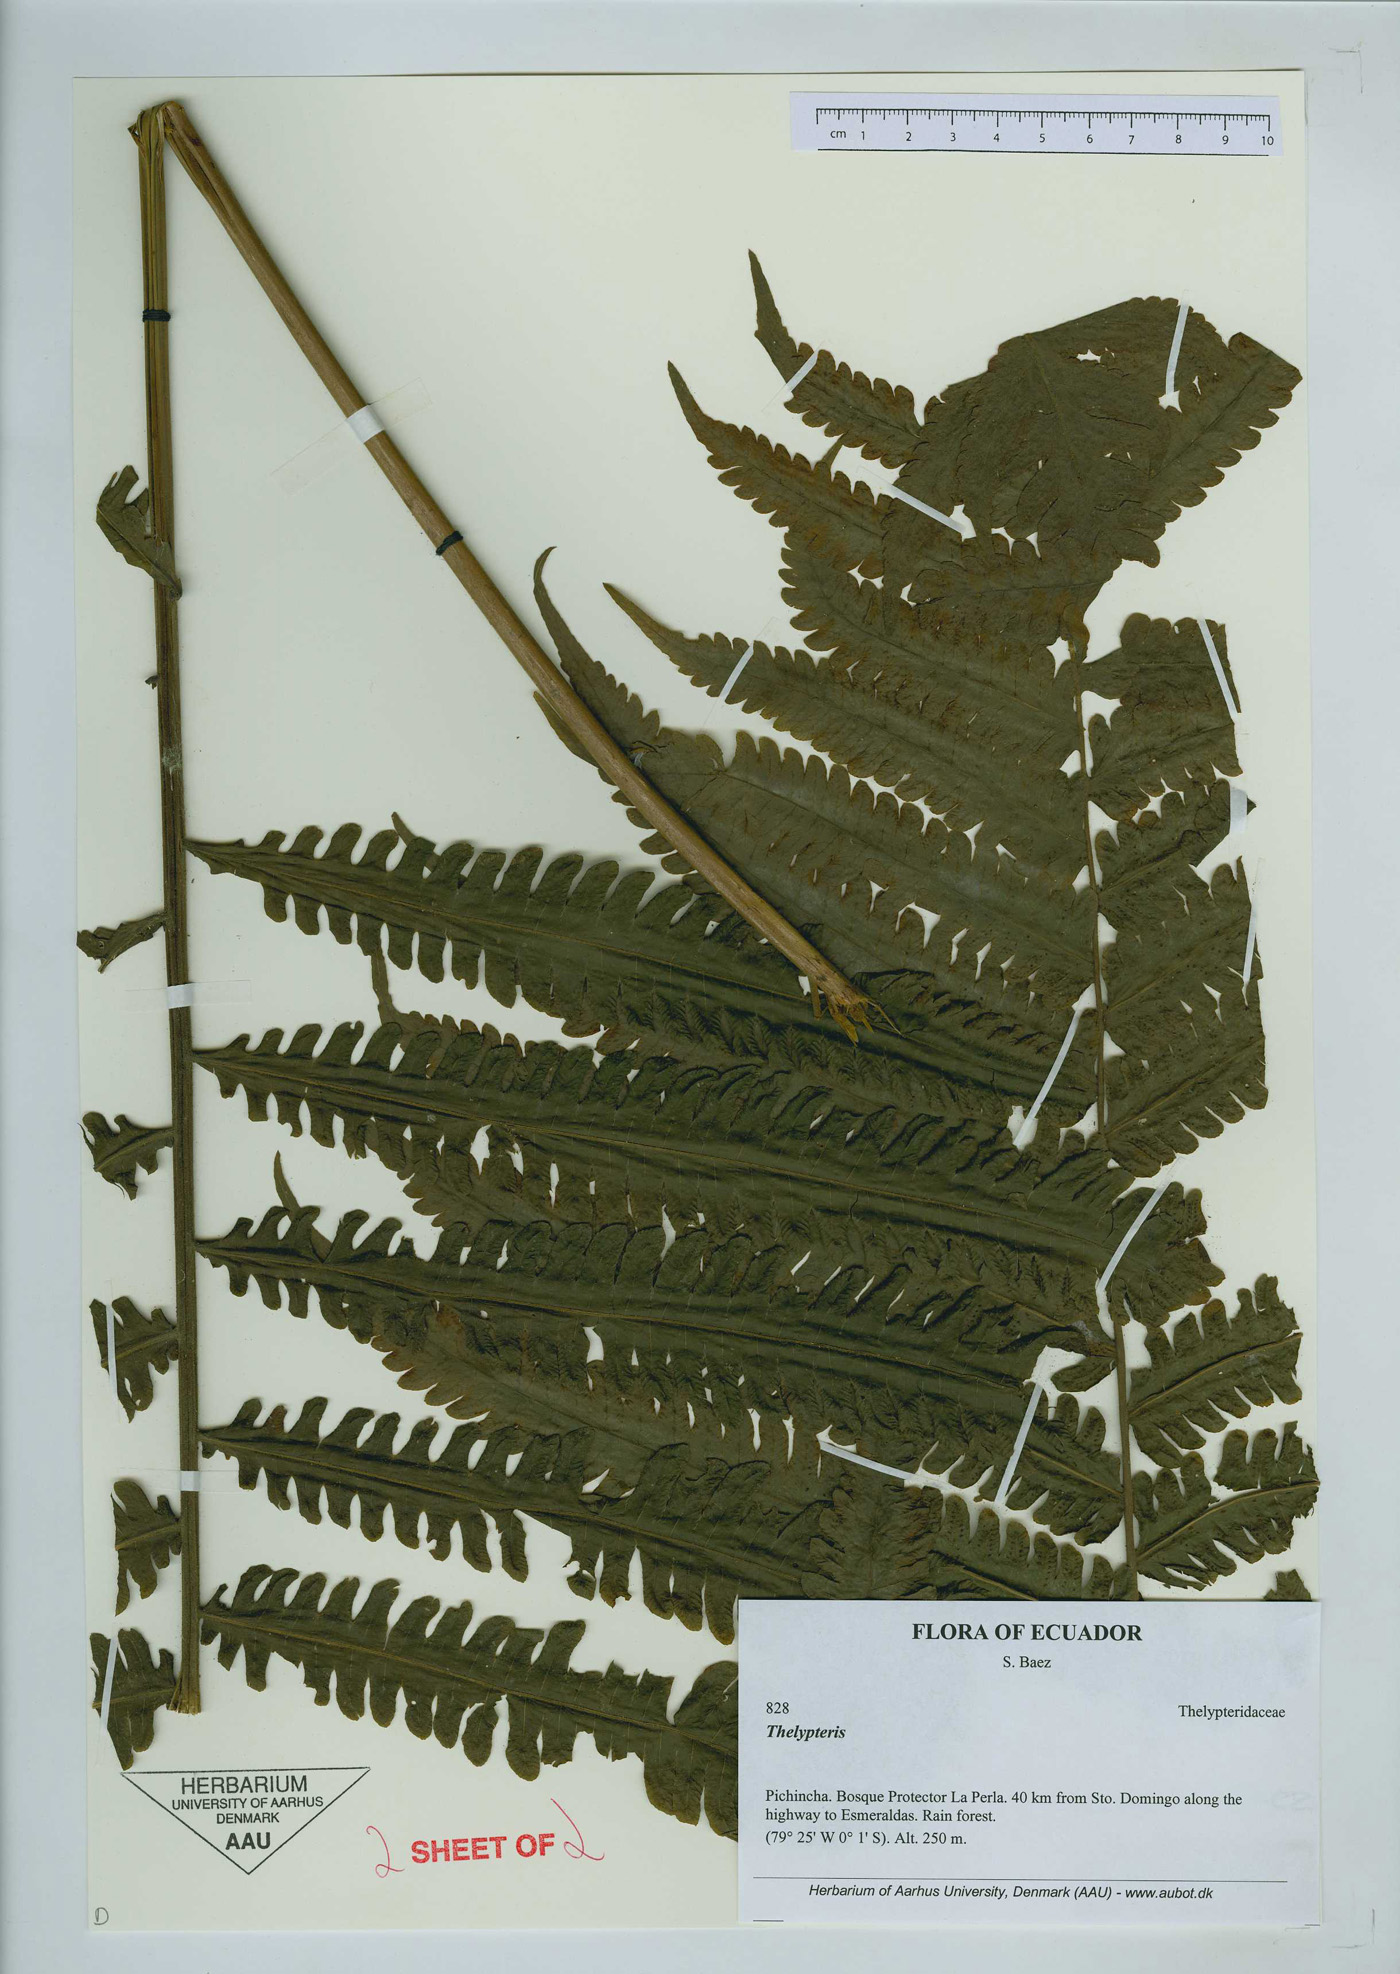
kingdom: Plantae
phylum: Tracheophyta
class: Polypodiopsida
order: Polypodiales
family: Thelypteridaceae
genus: Thelypteris
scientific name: Thelypteris
